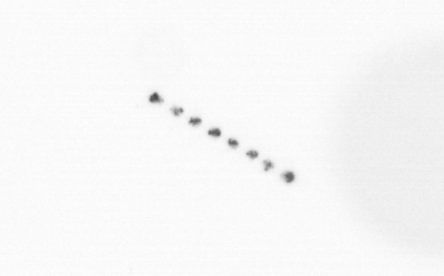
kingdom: Chromista
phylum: Ochrophyta
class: Bacillariophyceae
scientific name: Bacillariophyceae
